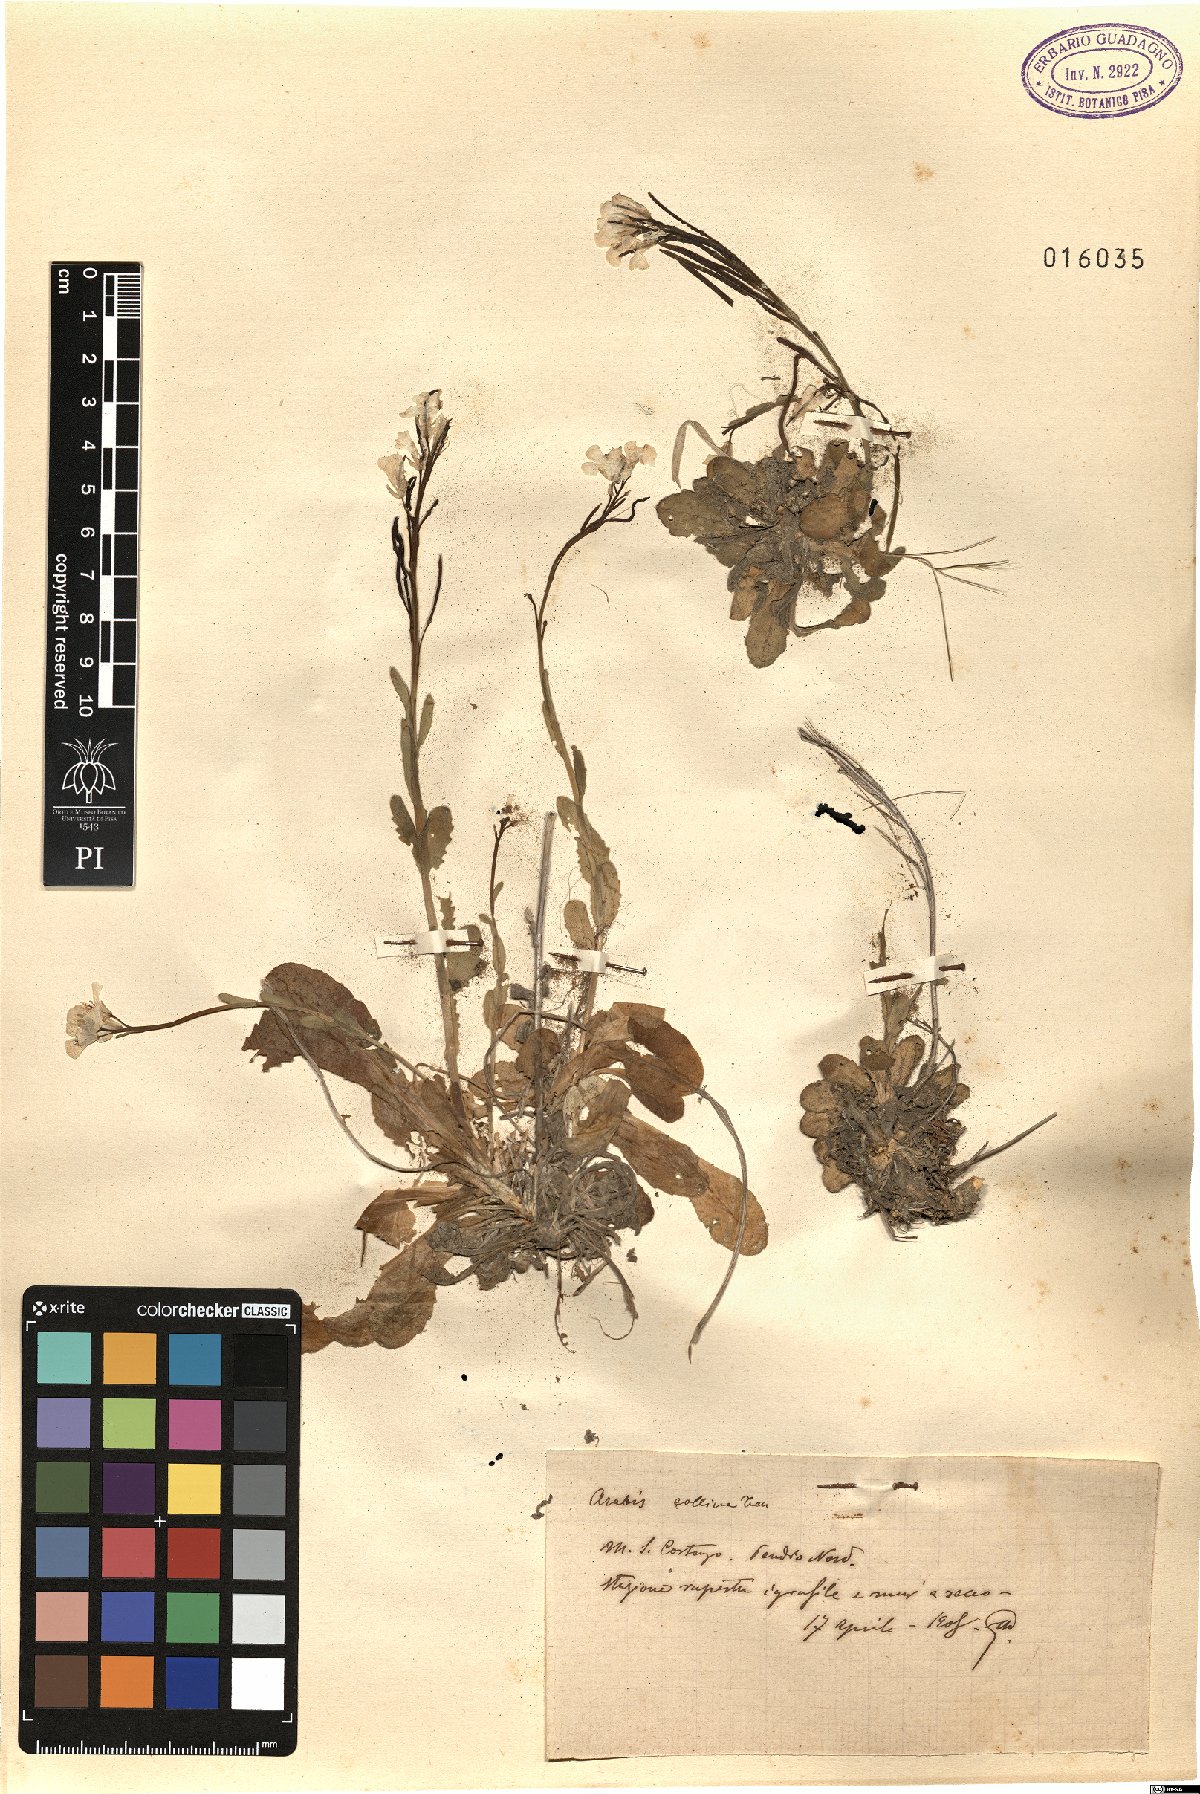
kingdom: Plantae
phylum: Tracheophyta
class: Magnoliopsida
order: Brassicales
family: Brassicaceae
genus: Arabis
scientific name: Arabis collina
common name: Rosy cress
